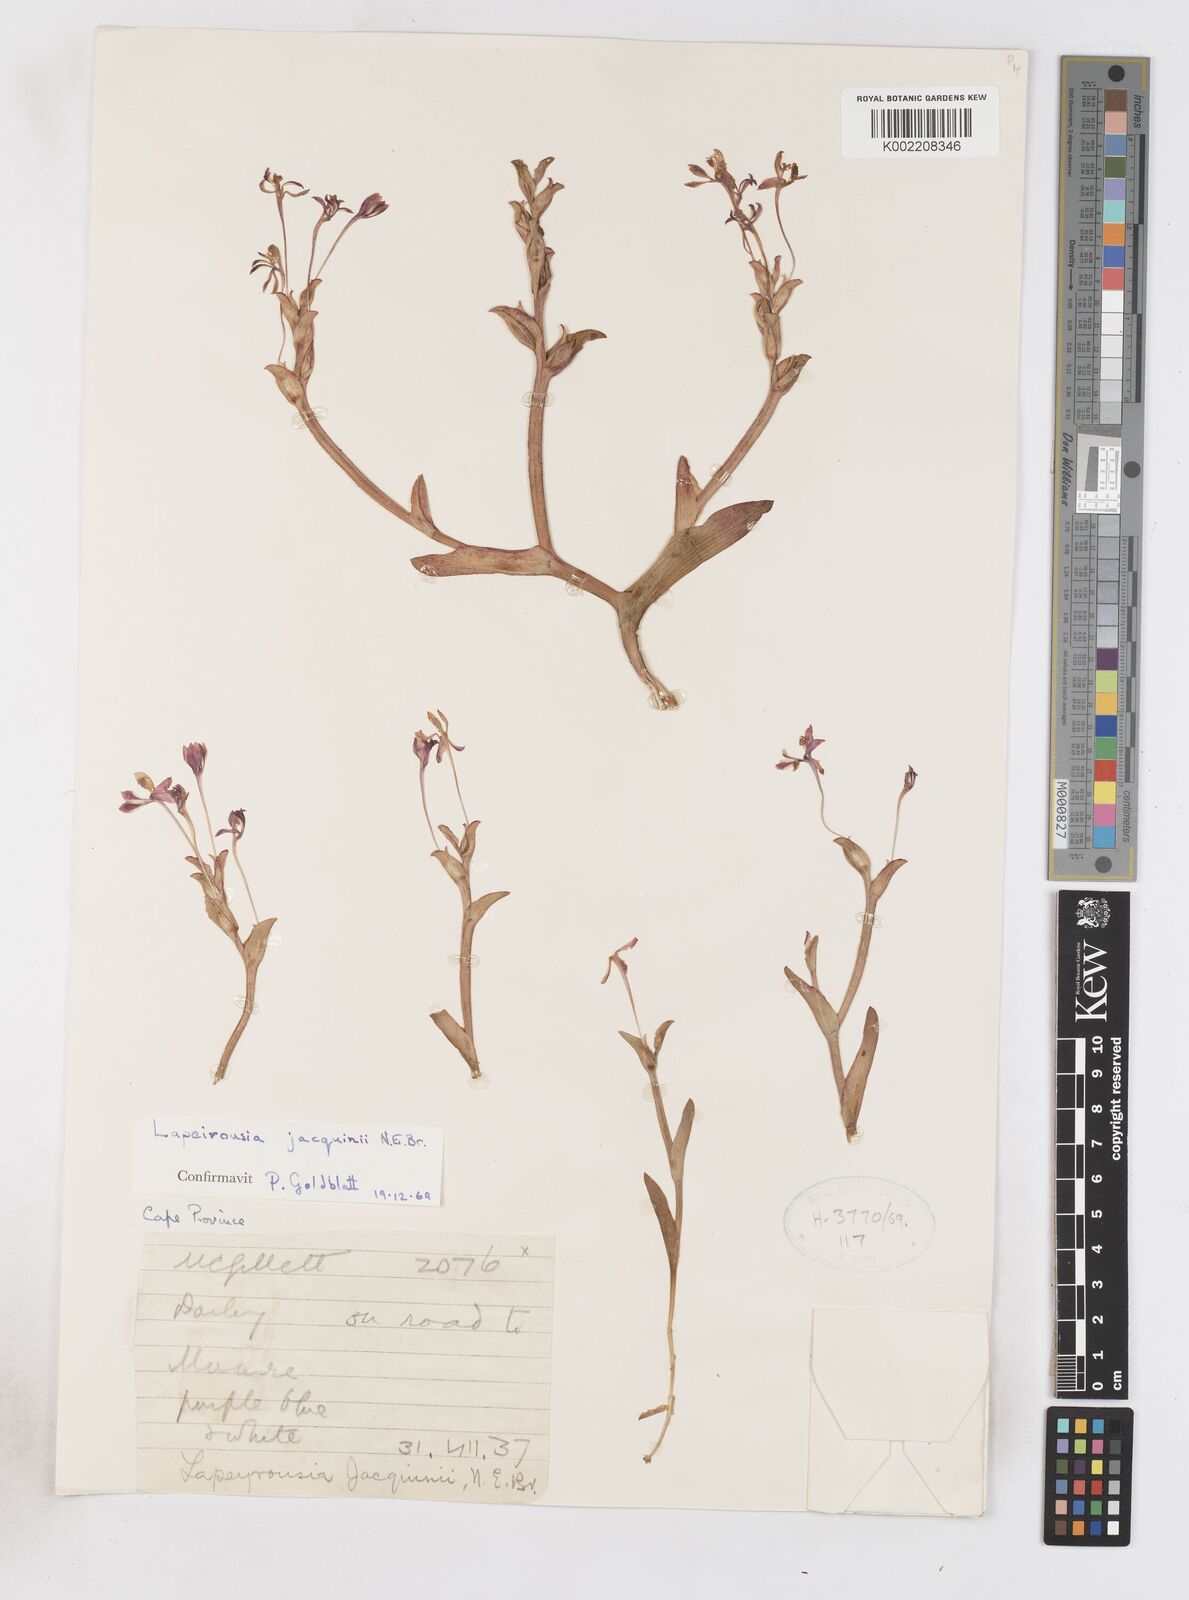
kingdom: Plantae
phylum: Tracheophyta
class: Liliopsida
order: Asparagales
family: Iridaceae
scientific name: Iridaceae
